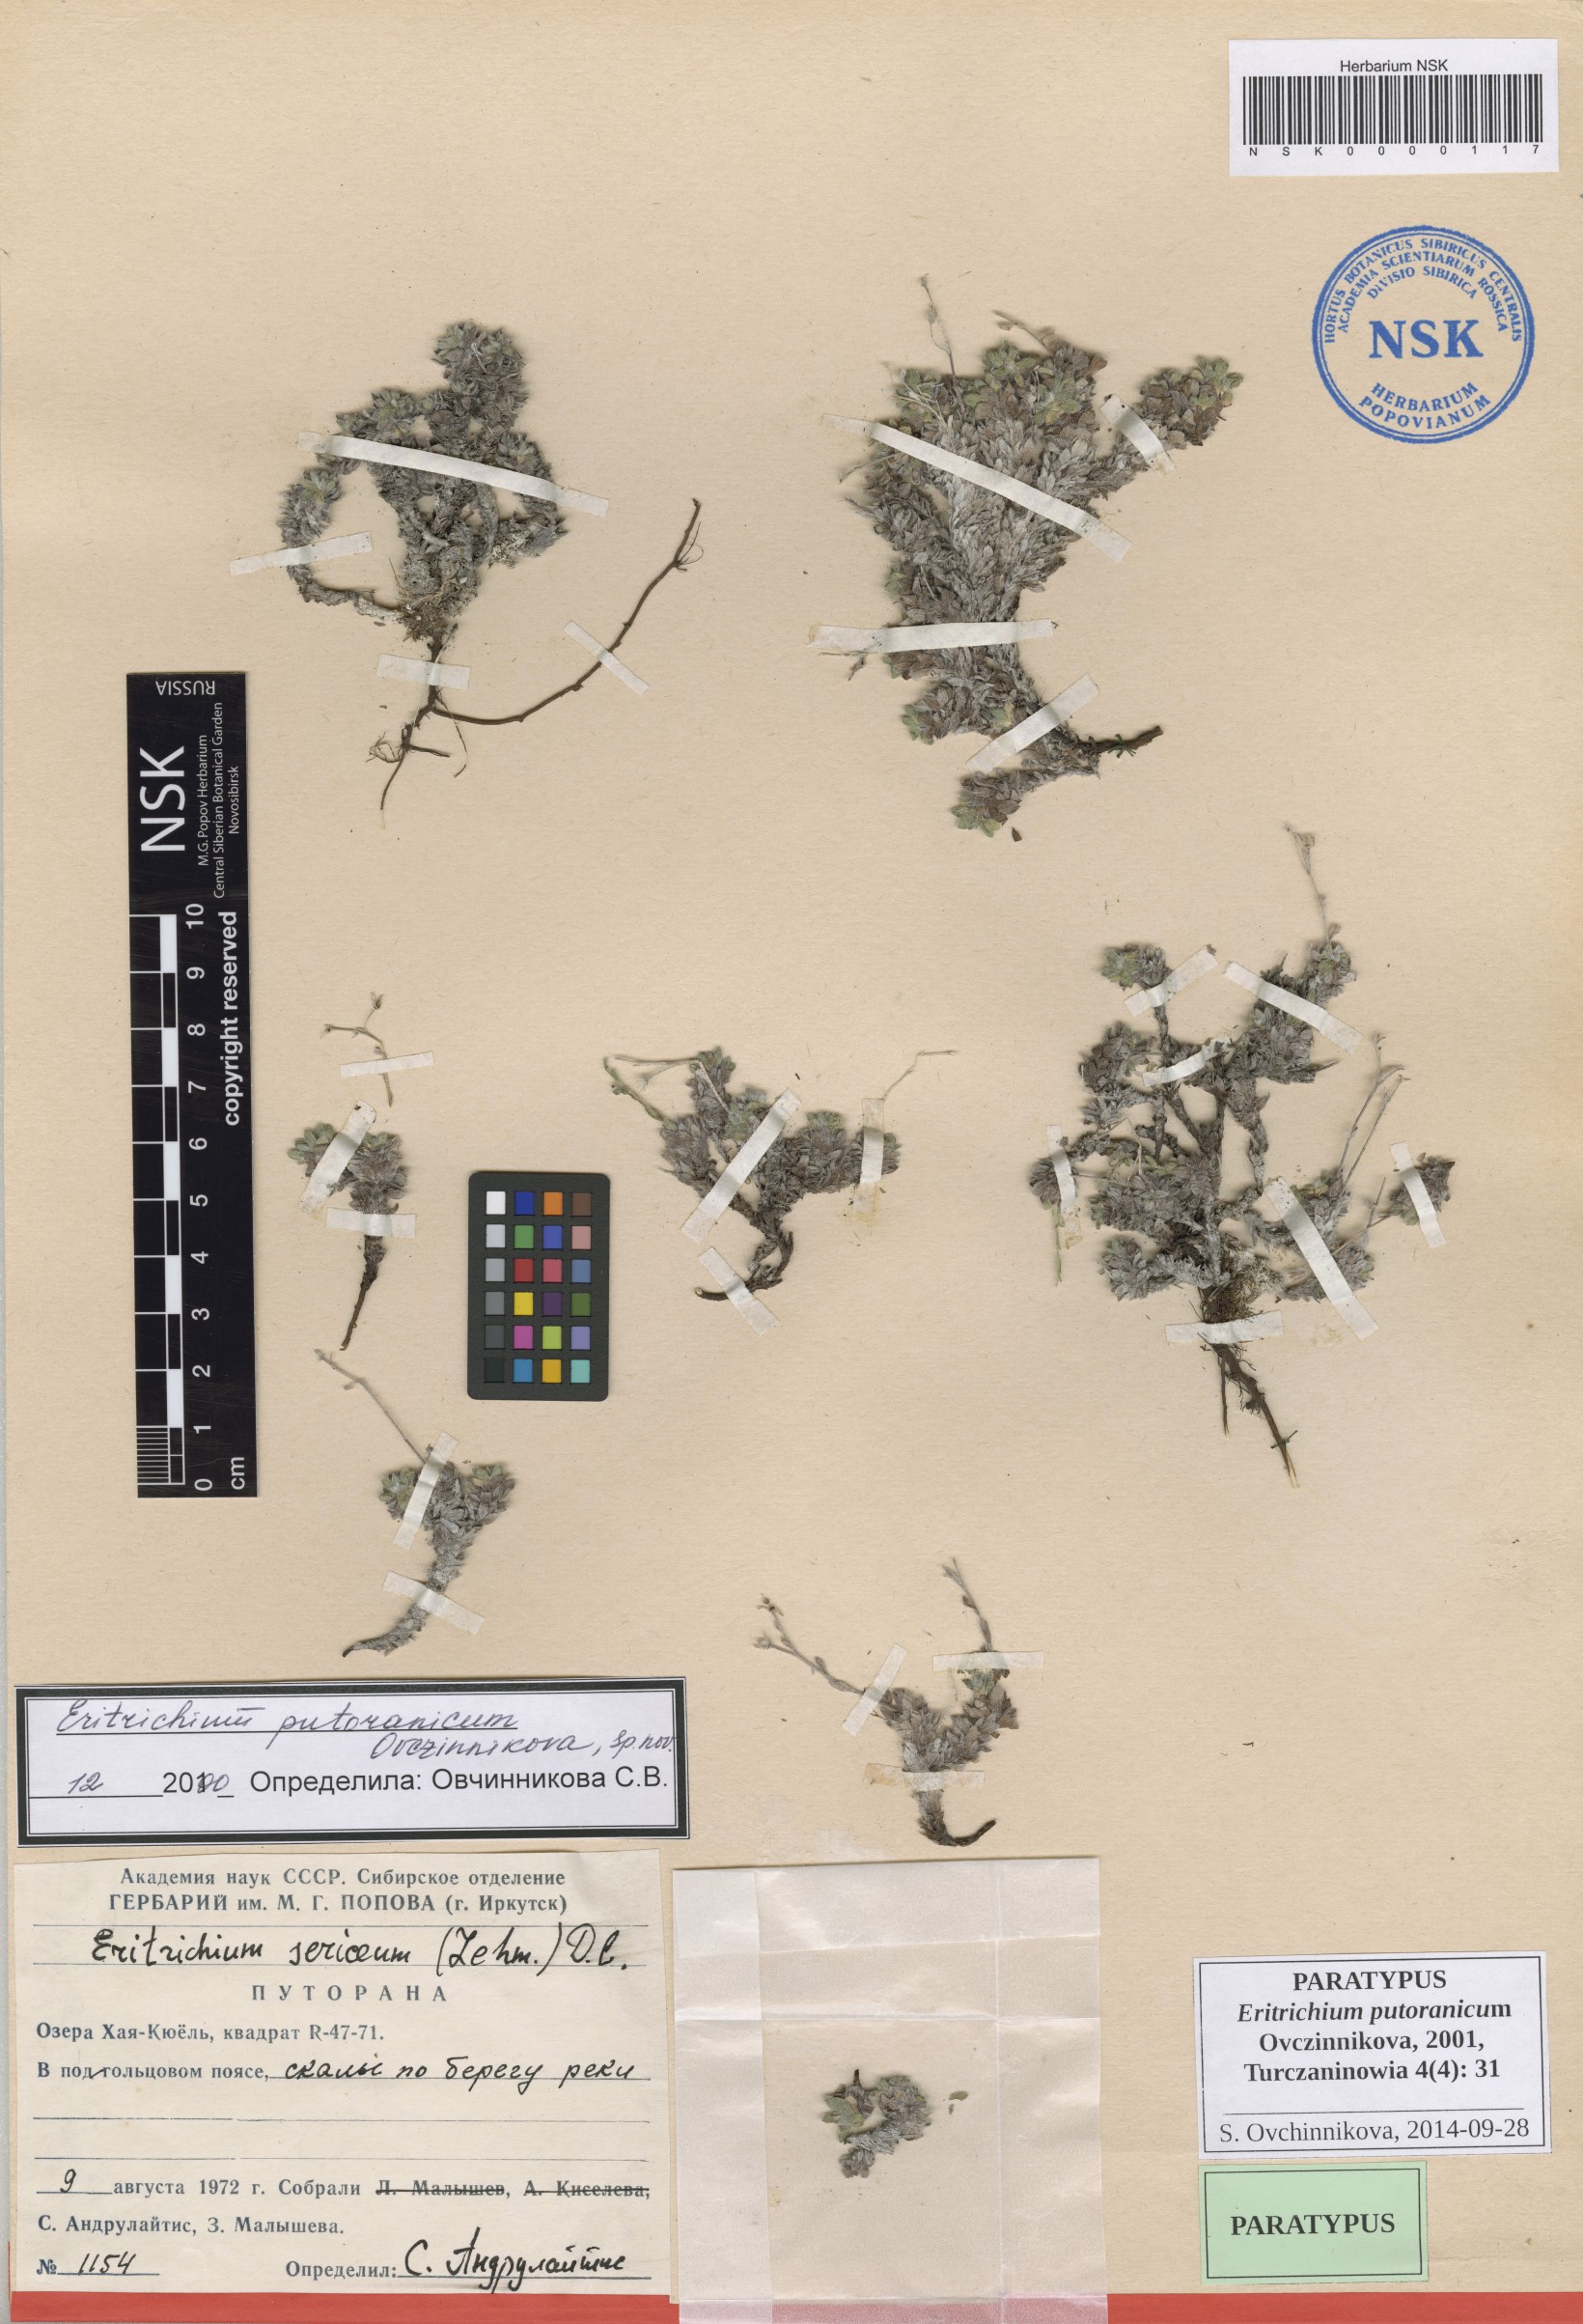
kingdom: Plantae
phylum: Tracheophyta
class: Magnoliopsida
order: Boraginales
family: Boraginaceae
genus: Eritrichium
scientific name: Eritrichium putoranicum
